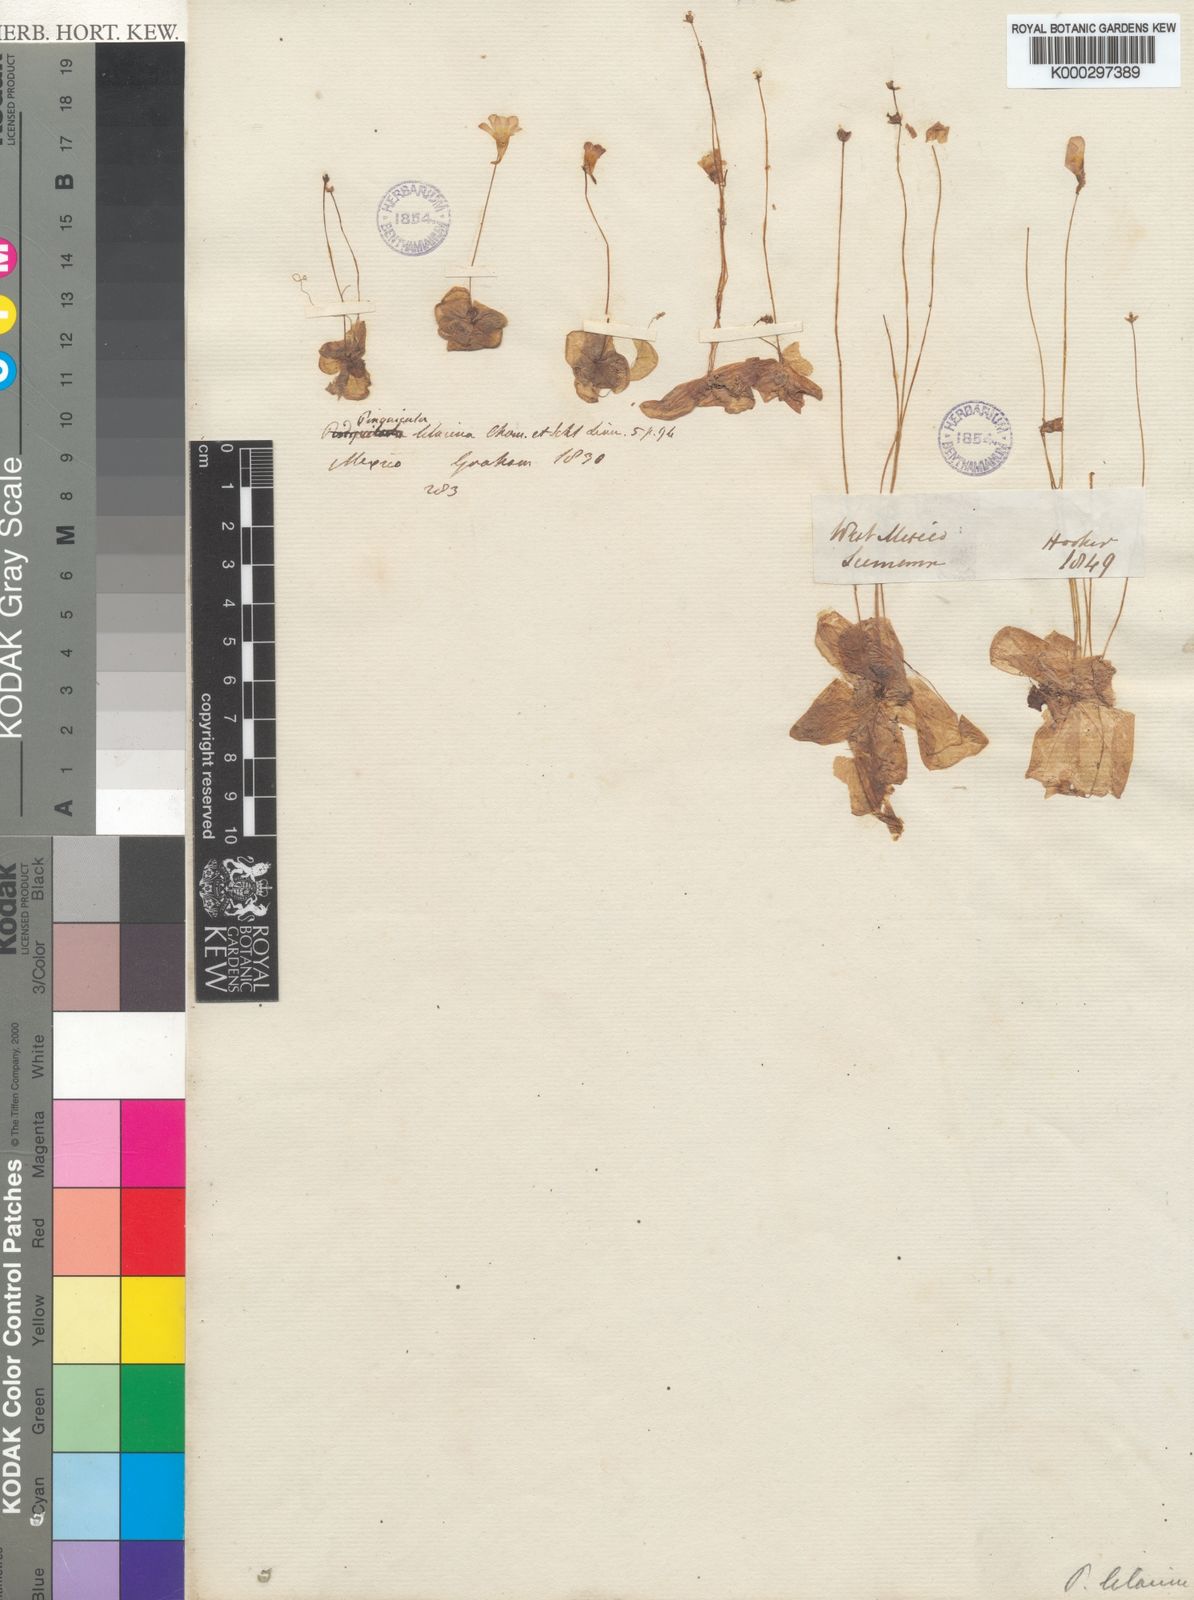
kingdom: Plantae
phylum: Tracheophyta
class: Magnoliopsida
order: Lamiales
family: Lentibulariaceae
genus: Pinguicula
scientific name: Pinguicula lilacina
